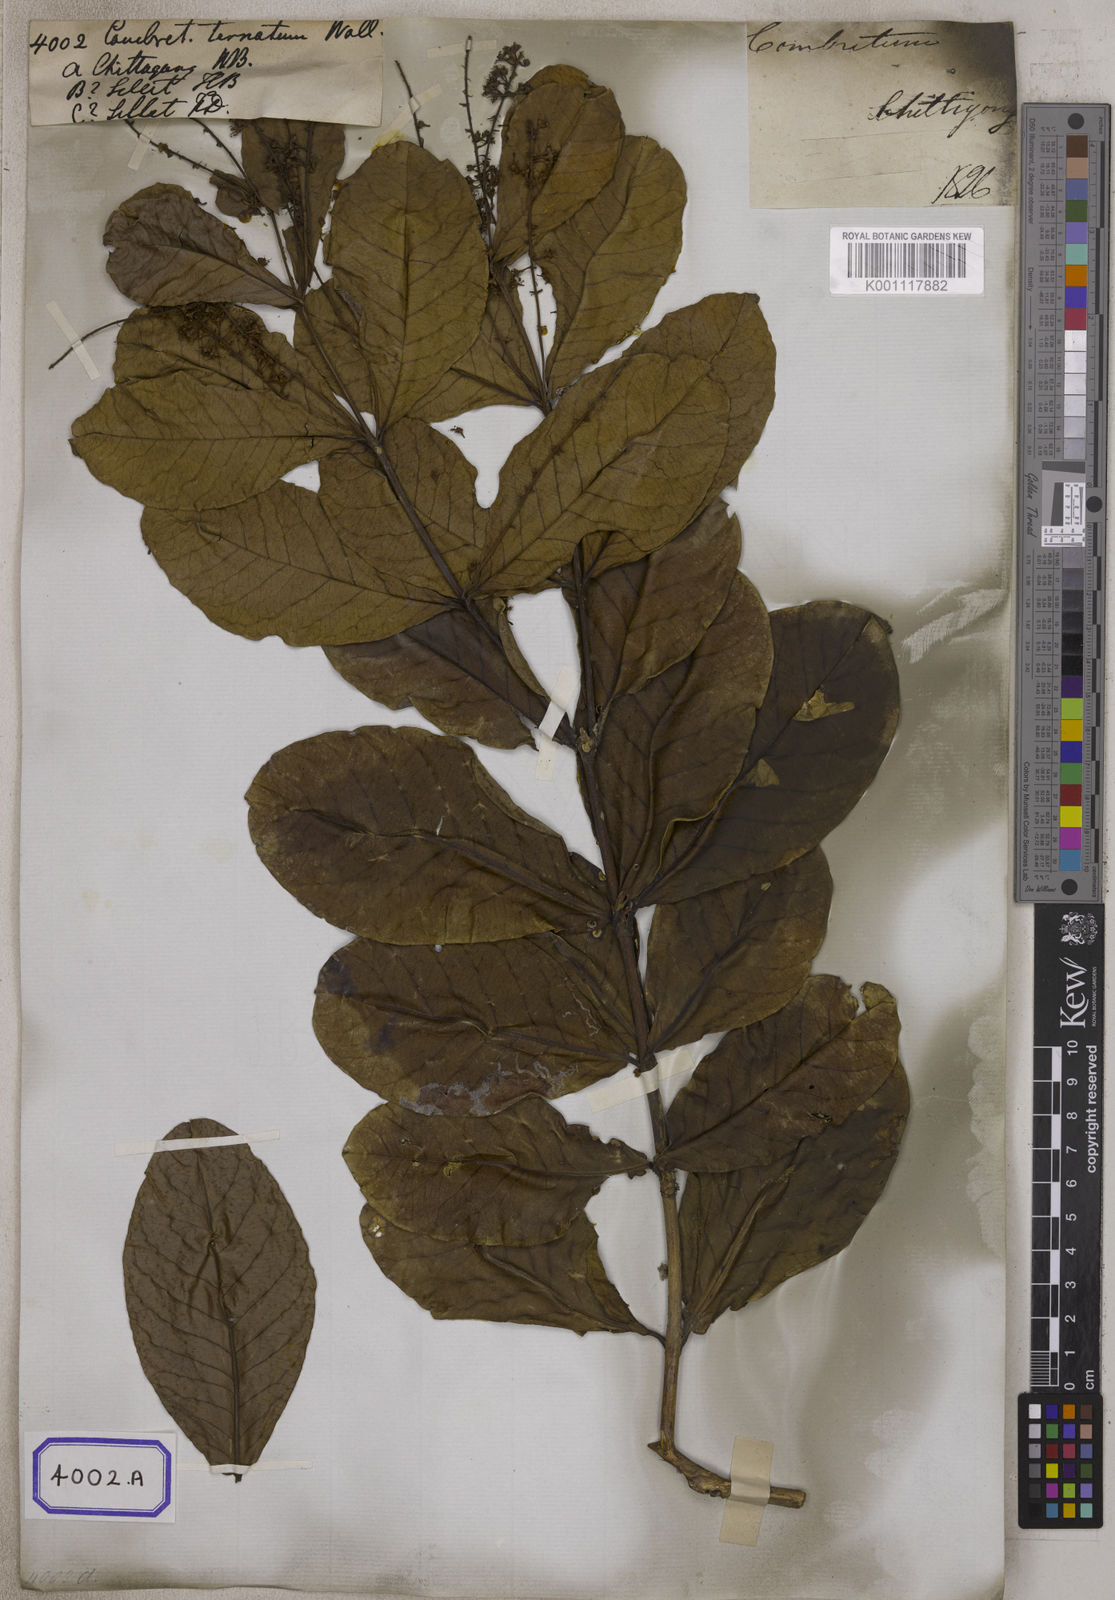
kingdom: Plantae
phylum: Tracheophyta
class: Magnoliopsida
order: Myrtales
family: Combretaceae
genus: Combretum
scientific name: Combretum
